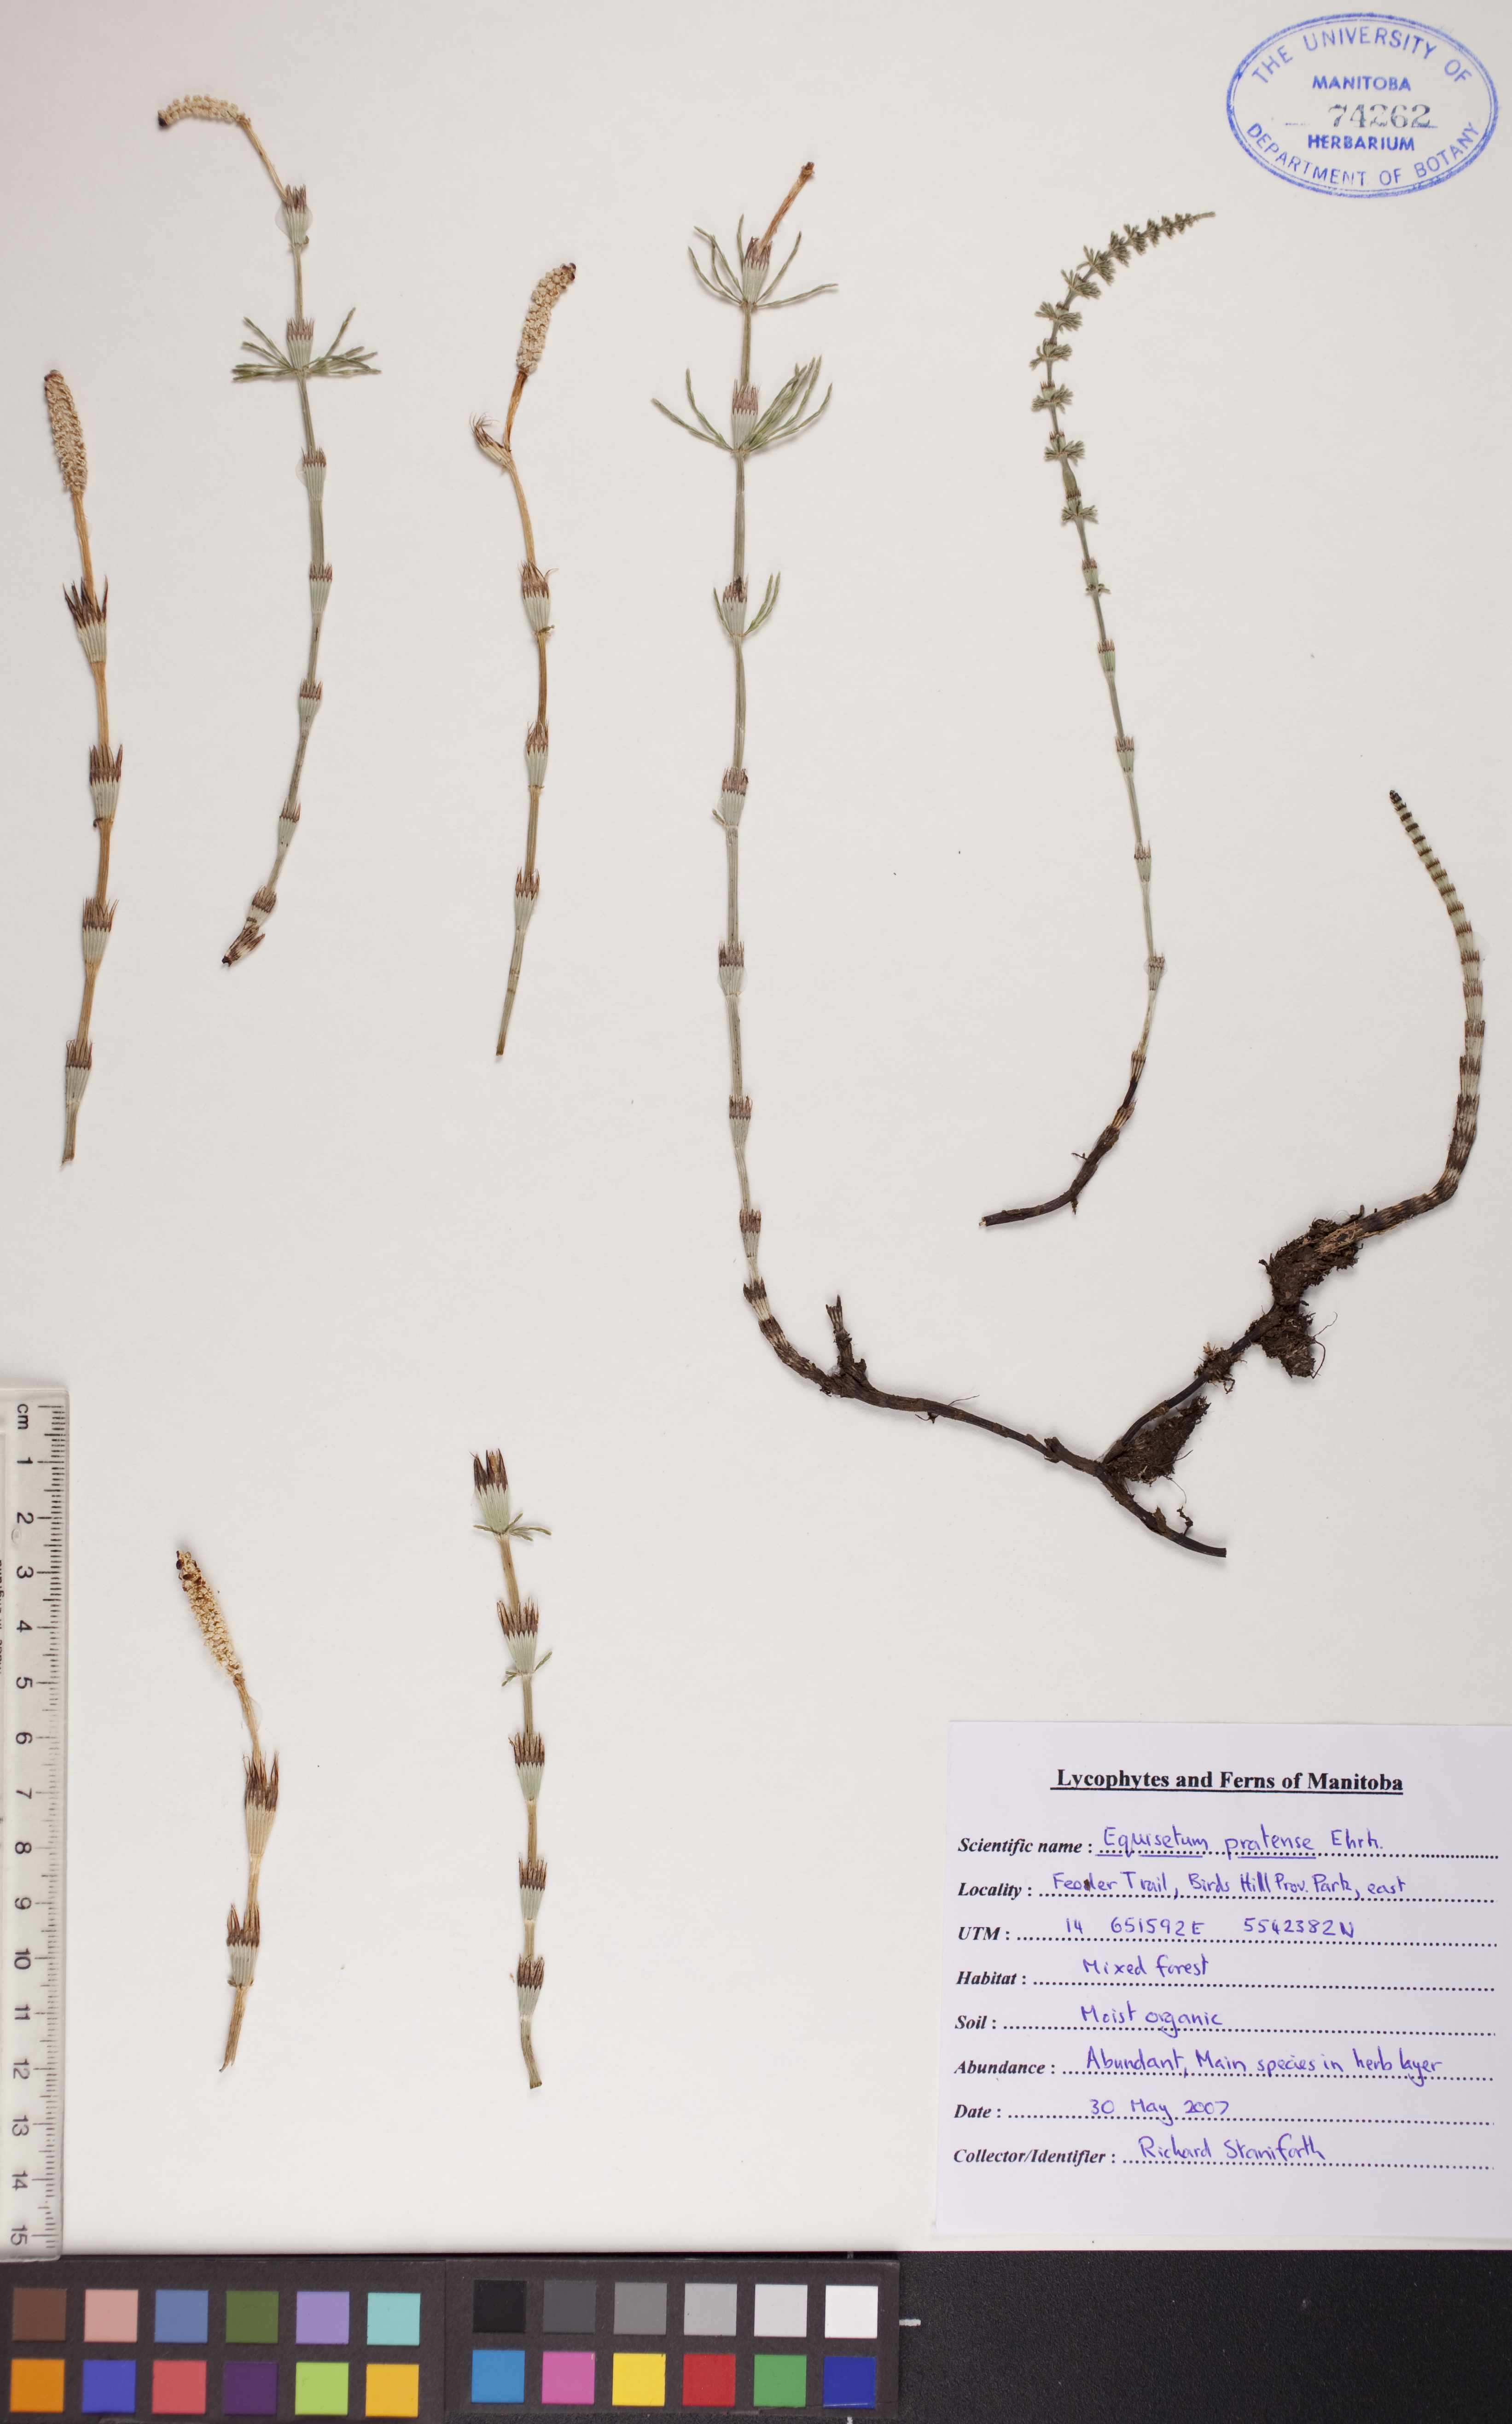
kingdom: Plantae
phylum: Tracheophyta
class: Polypodiopsida
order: Equisetales
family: Equisetaceae
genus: Equisetum
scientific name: Equisetum pratense
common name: Meadow horsetail
